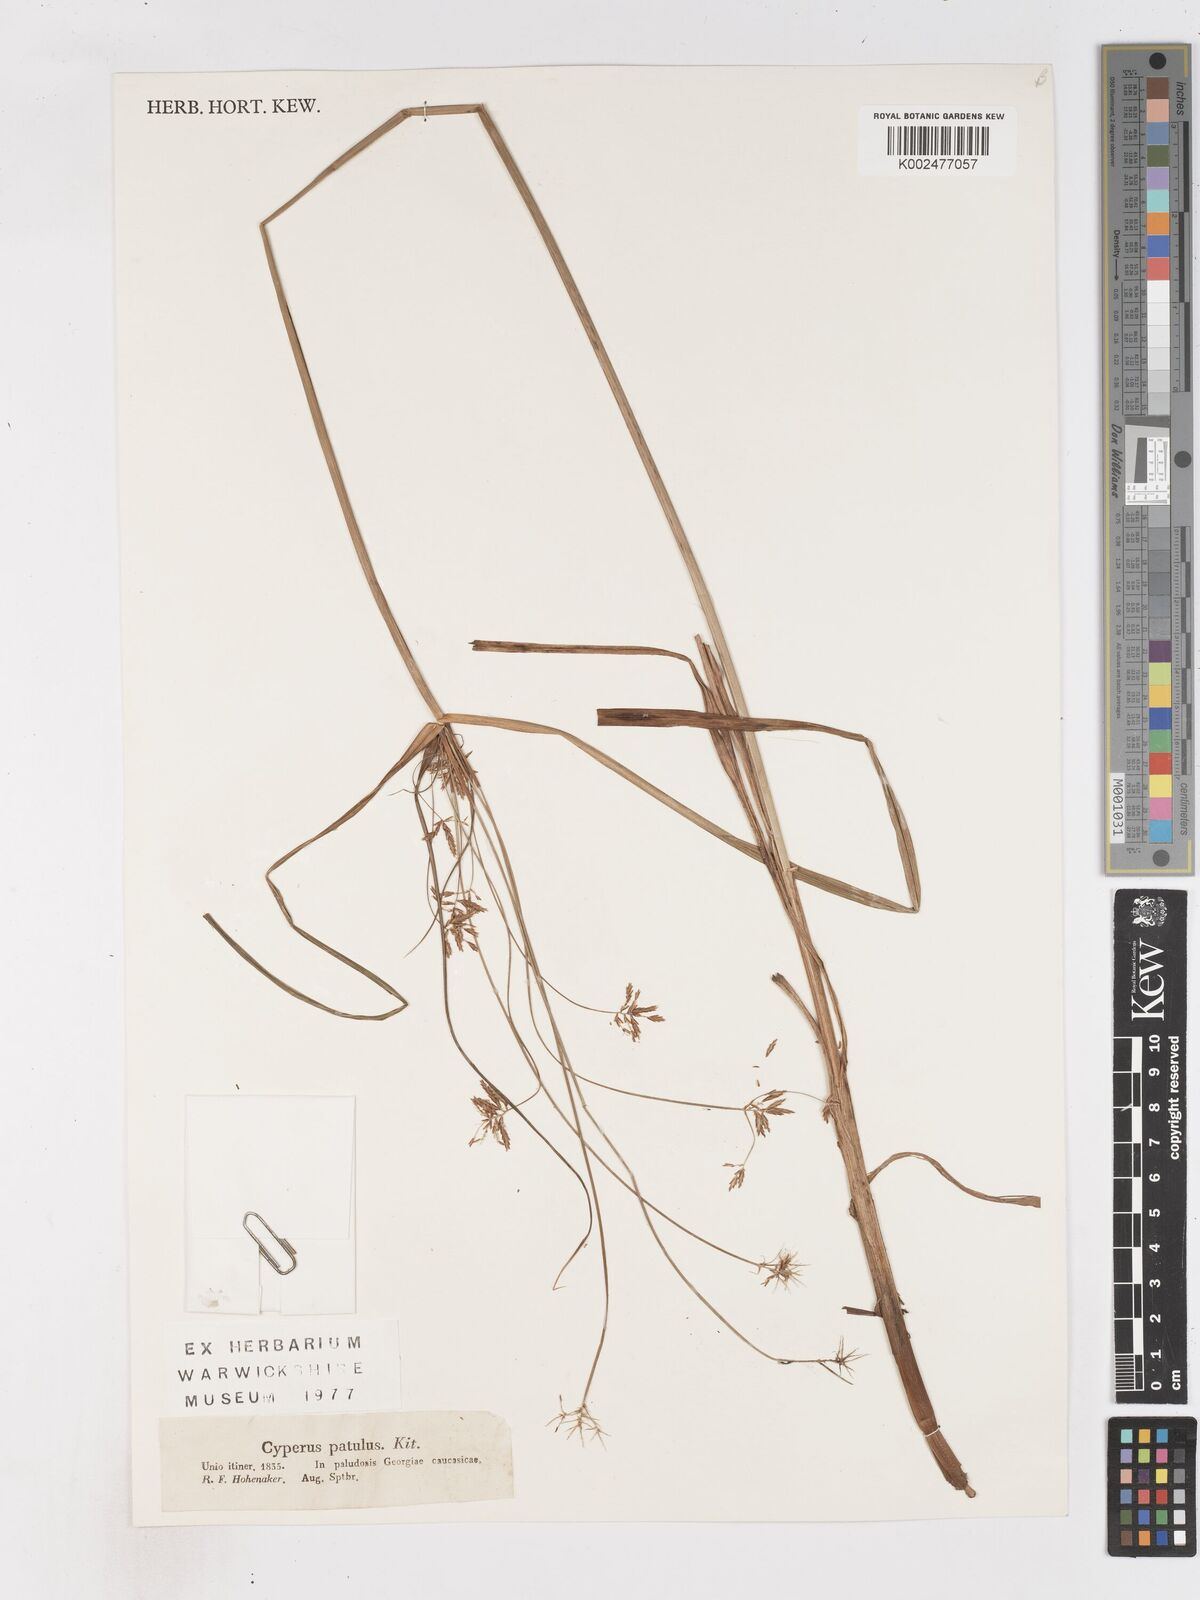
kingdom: Plantae
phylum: Tracheophyta
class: Liliopsida
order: Poales
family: Cyperaceae
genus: Cyperus
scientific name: Cyperus glaber
